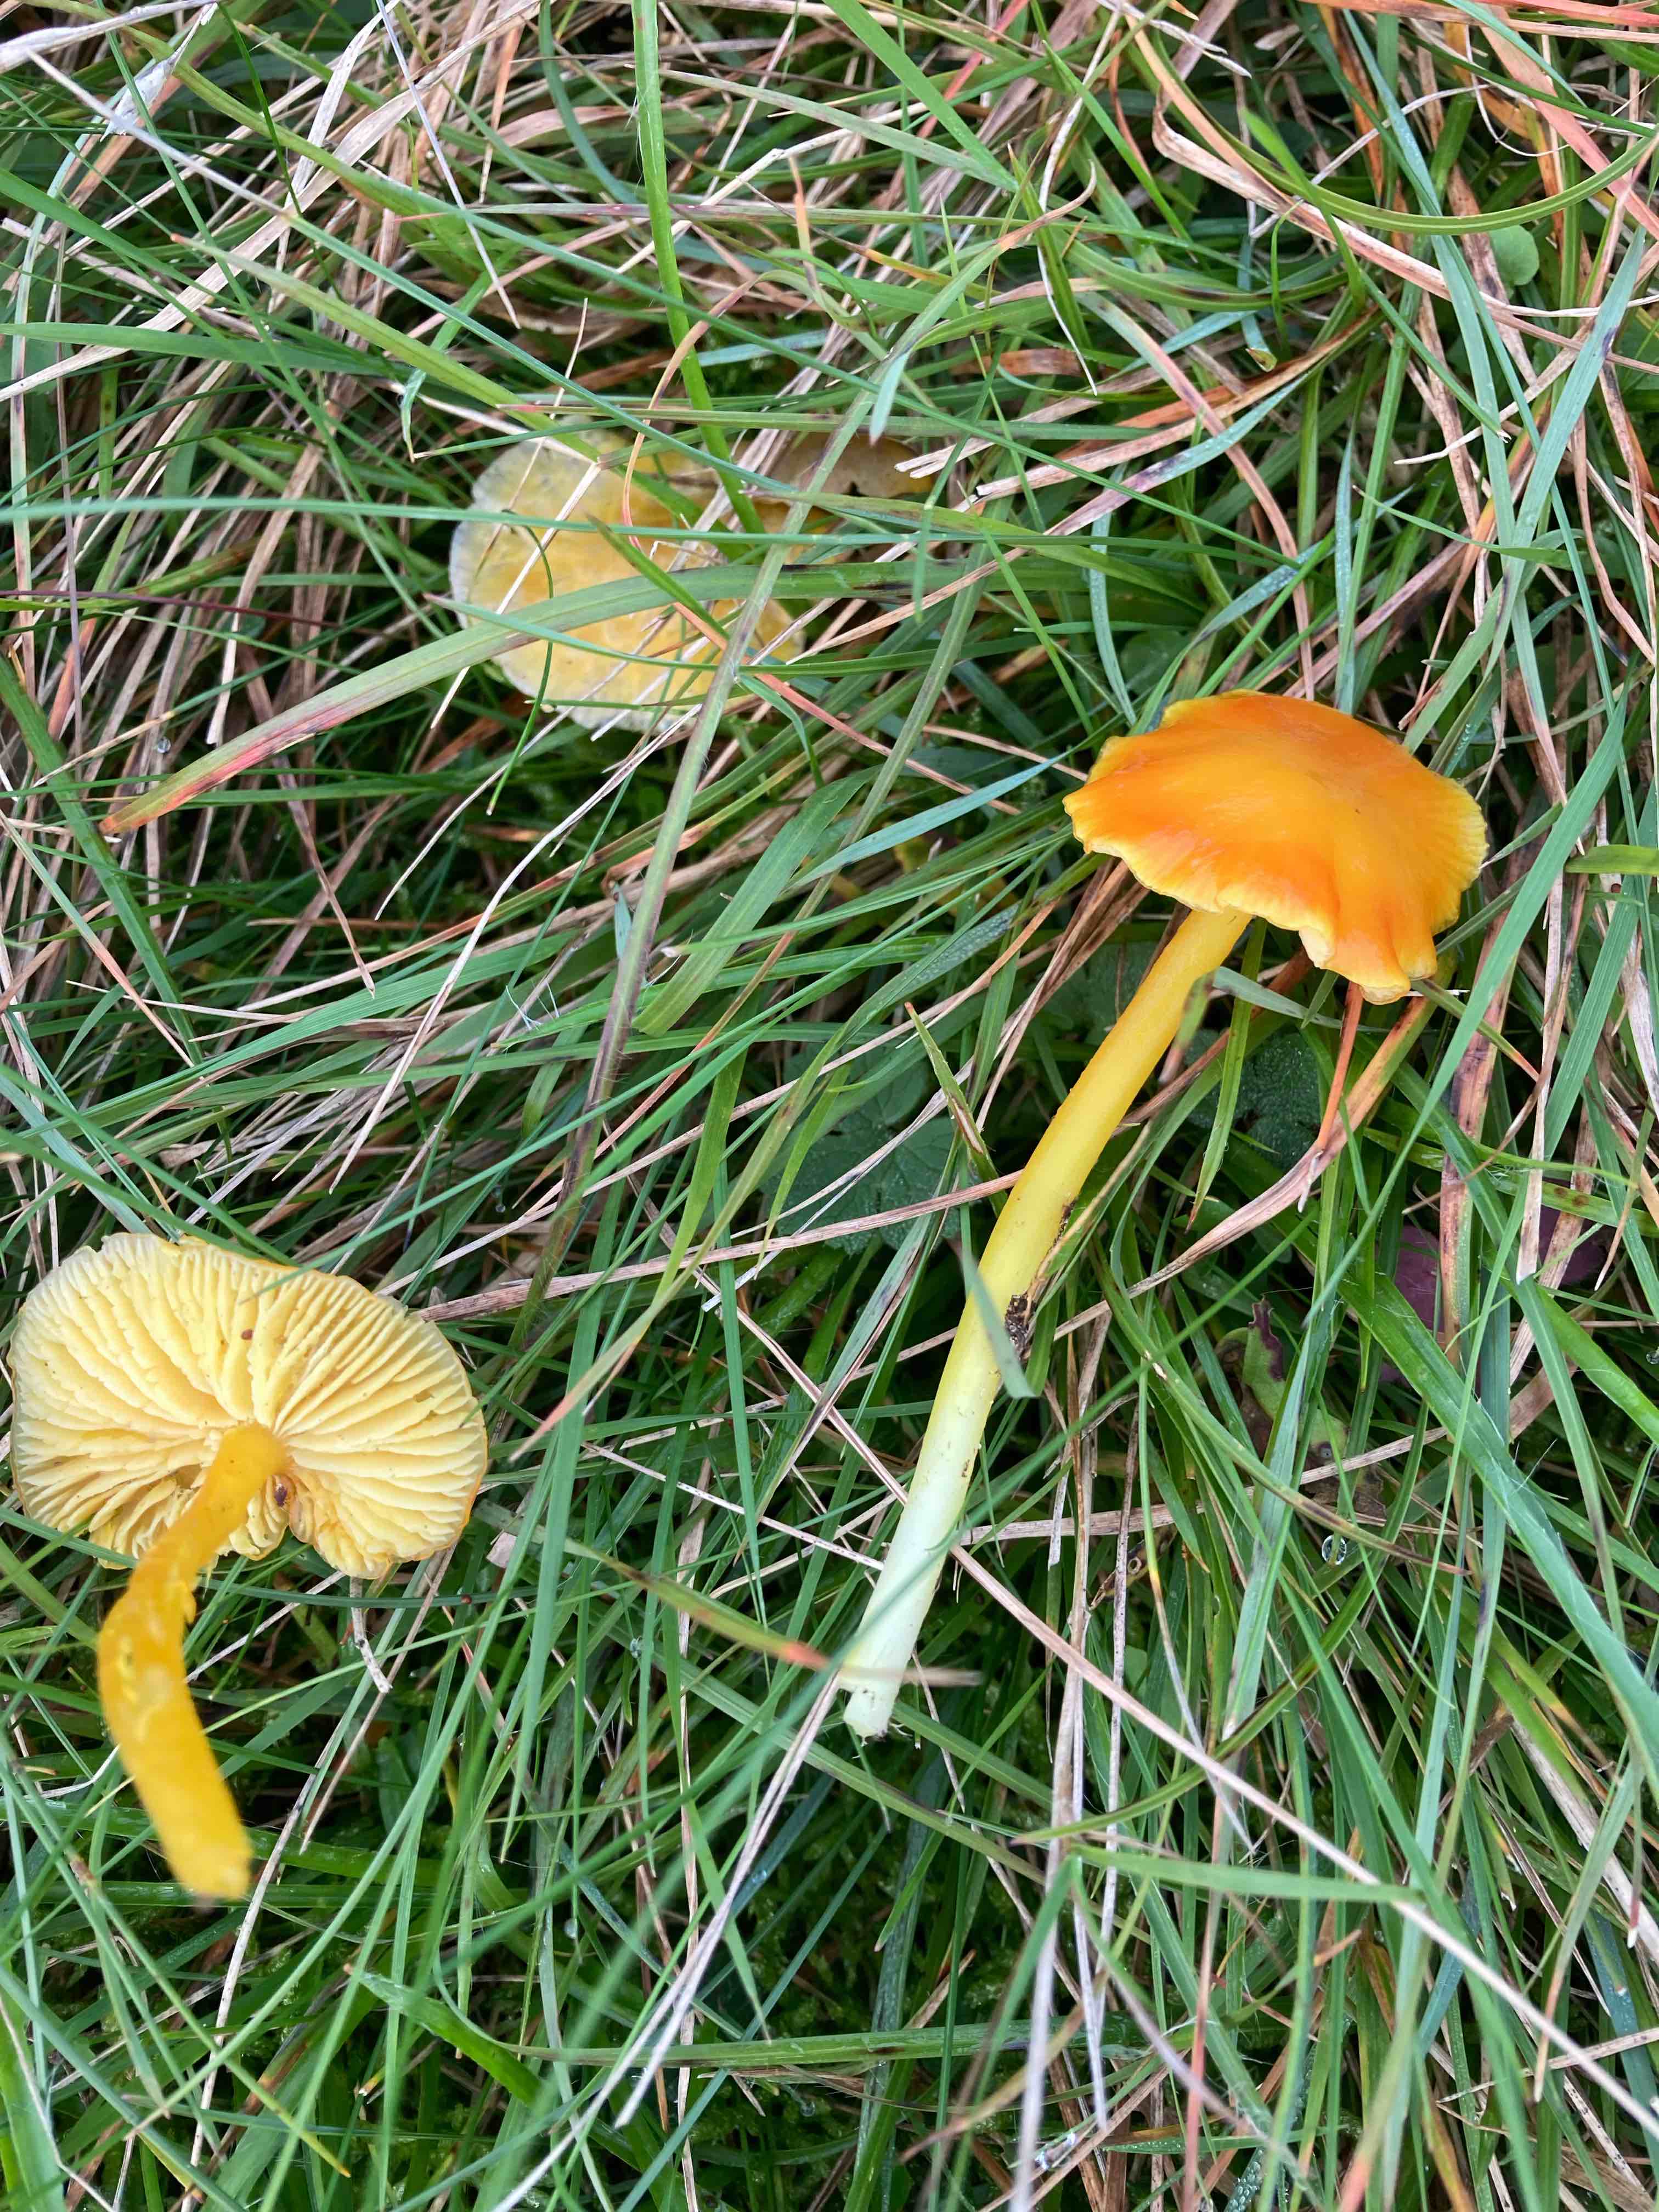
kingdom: Fungi
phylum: Basidiomycota
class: Agaricomycetes
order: Agaricales
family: Hygrophoraceae
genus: Hygrocybe
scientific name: Hygrocybe chlorophana
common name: gul vokshat
